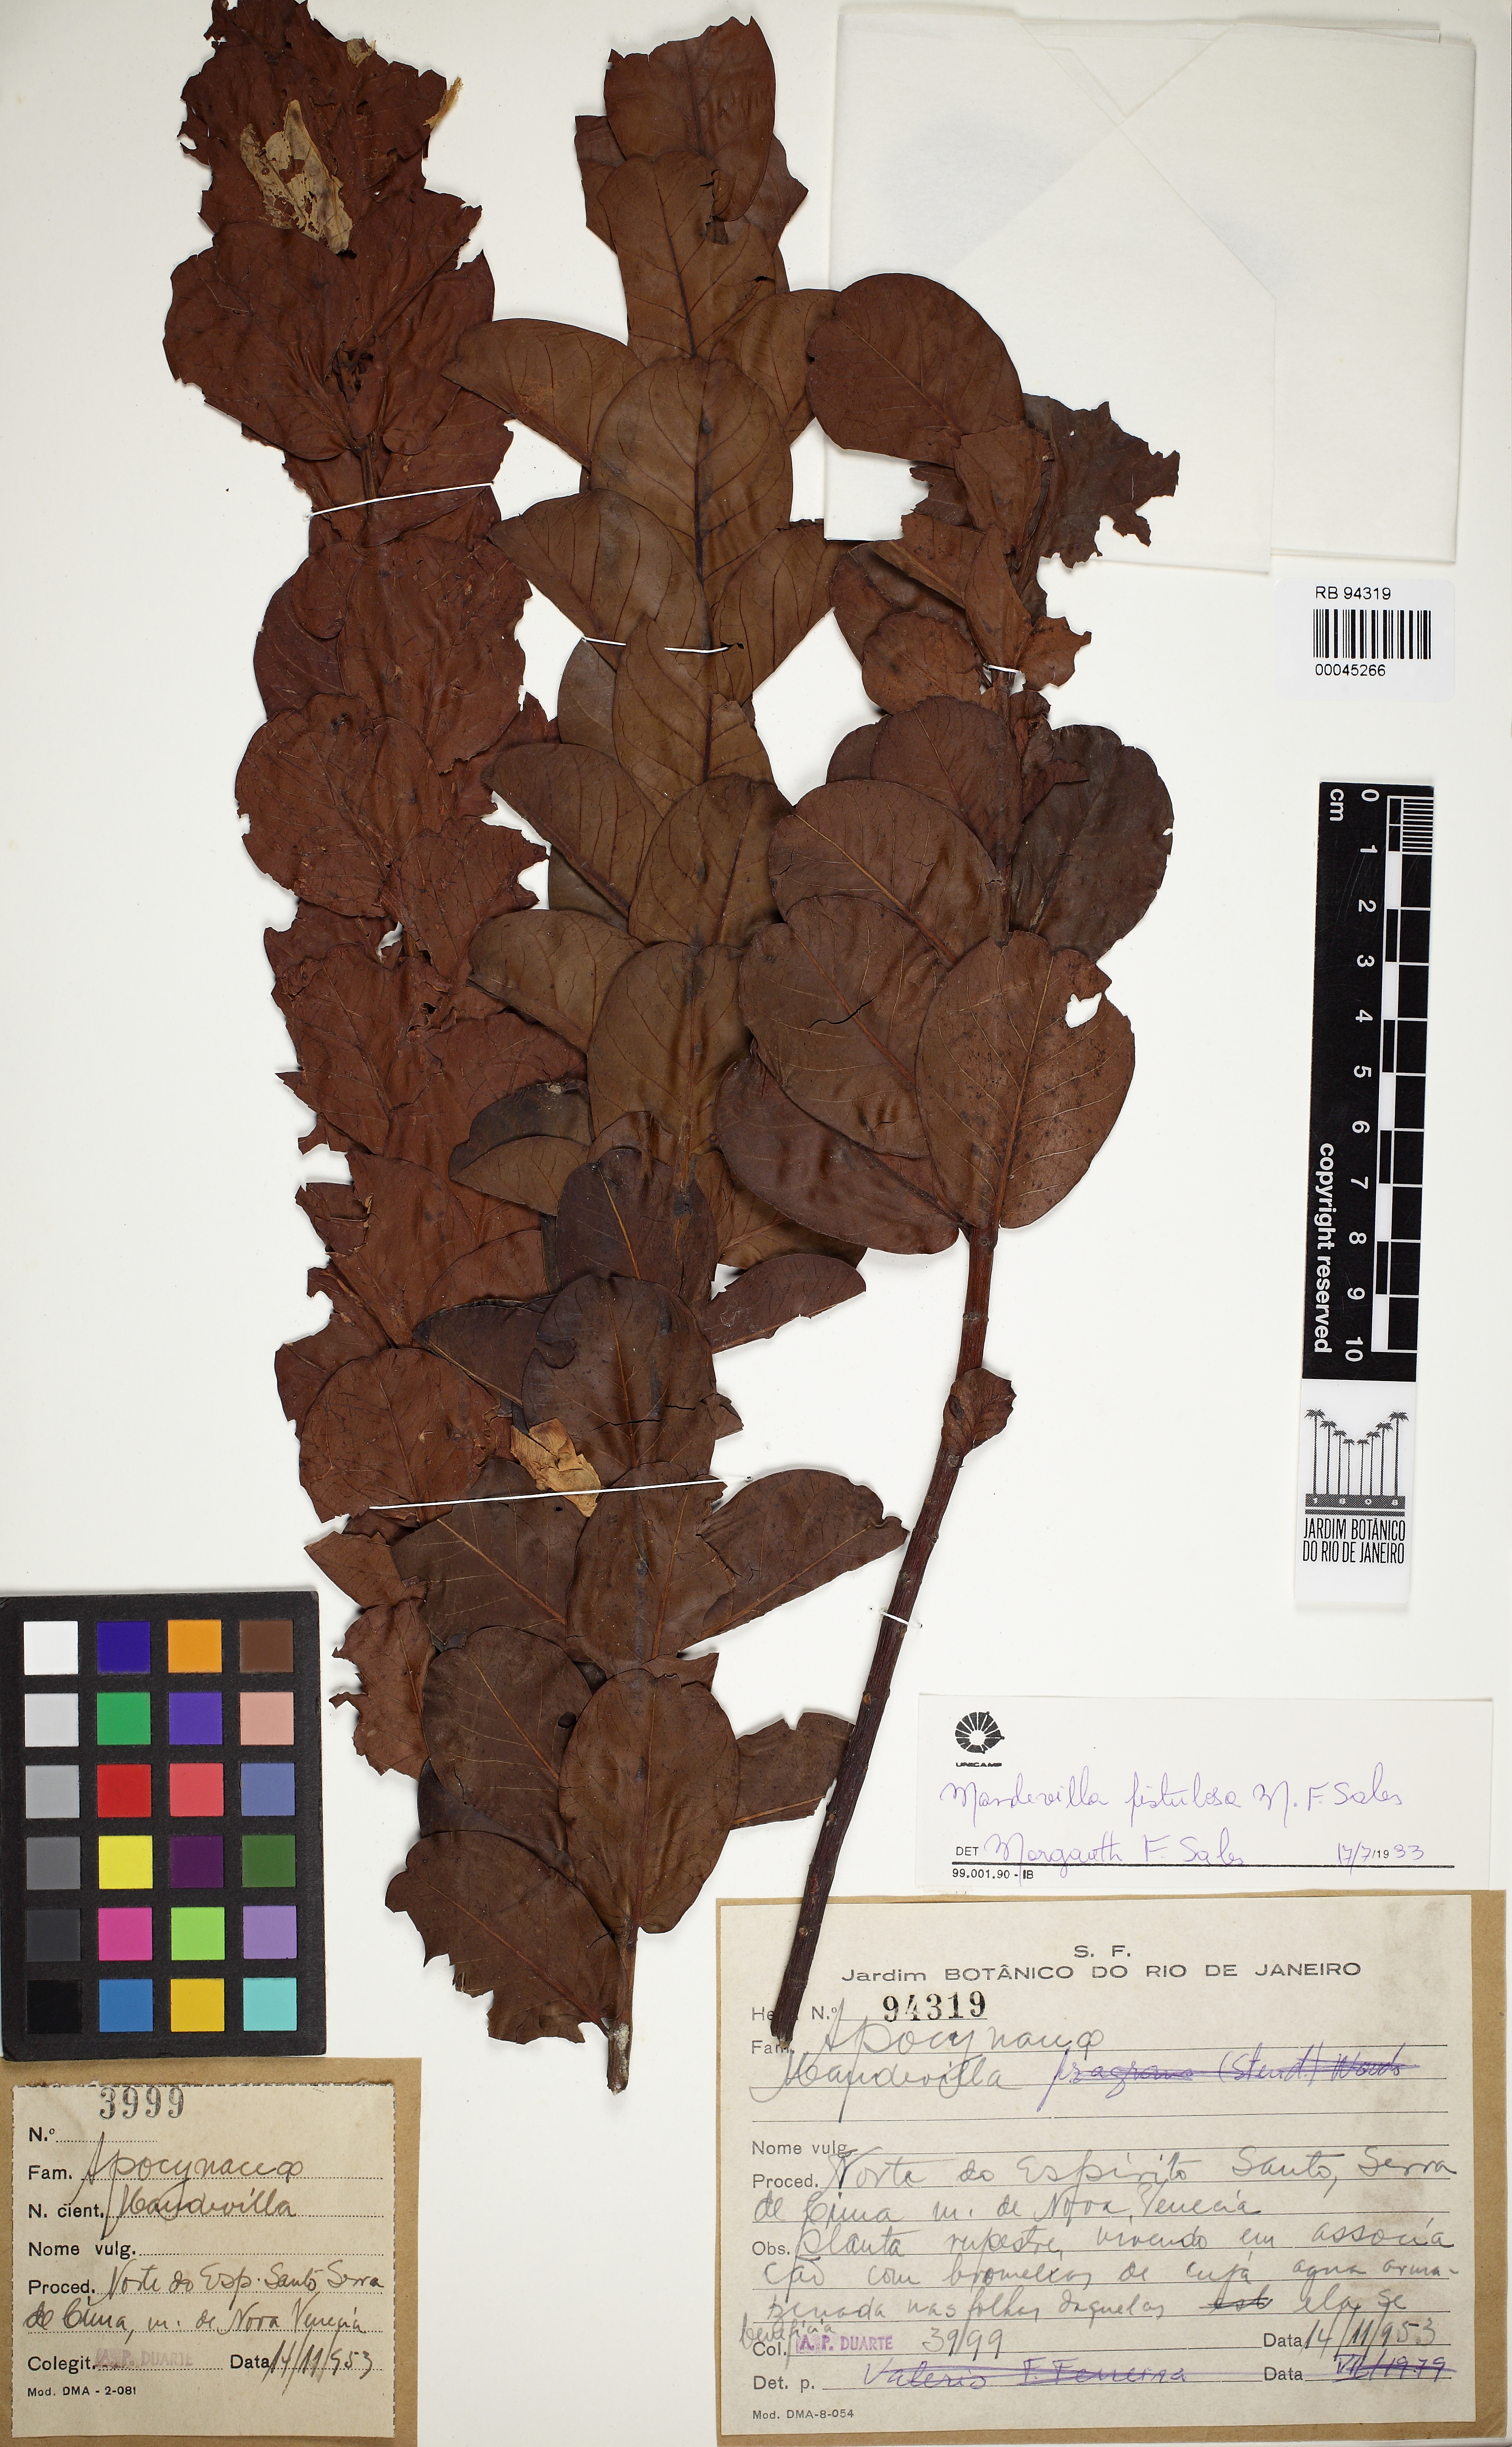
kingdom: Plantae
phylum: Tracheophyta
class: Magnoliopsida
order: Gentianales
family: Apocynaceae
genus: Mandevilla
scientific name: Mandevilla fistulosa
